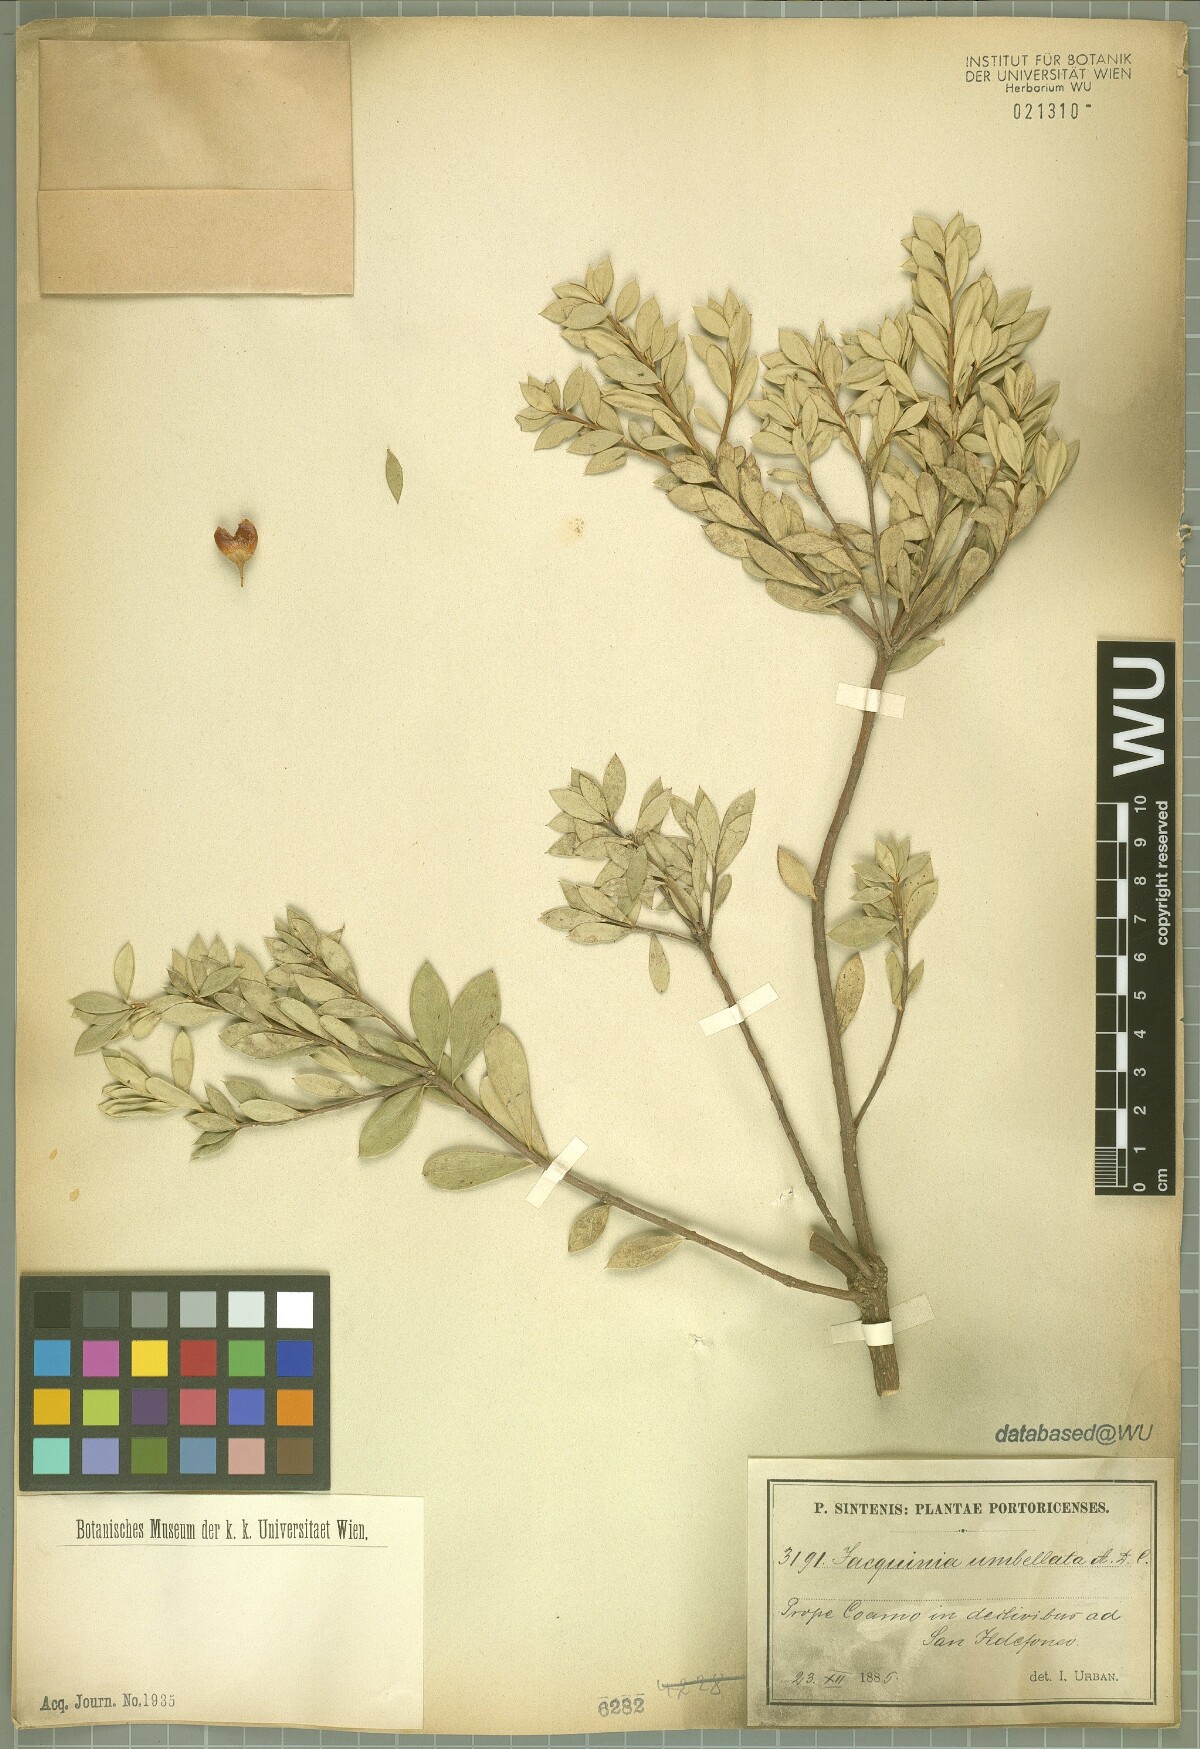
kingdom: Plantae
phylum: Tracheophyta
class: Magnoliopsida
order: Ericales
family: Primulaceae
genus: Bonellia
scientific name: Bonellia umbellata
